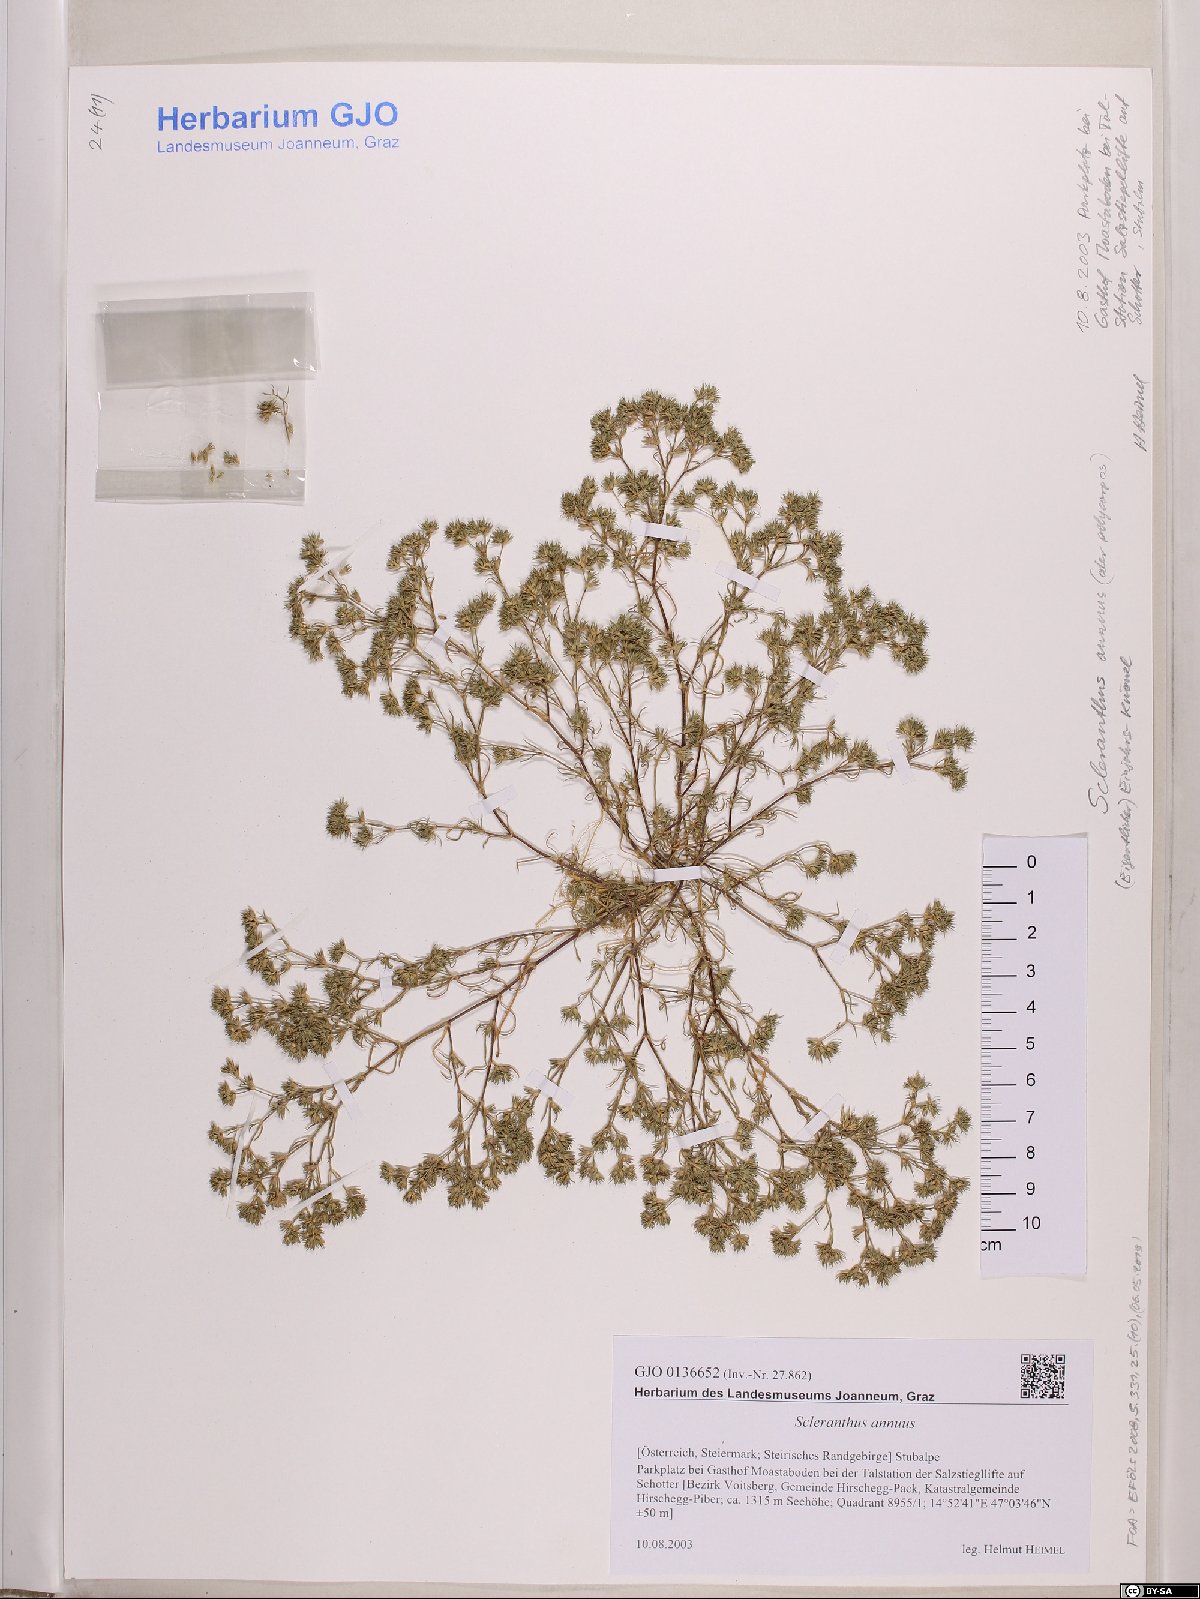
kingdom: Plantae
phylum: Tracheophyta
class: Magnoliopsida
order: Caryophyllales
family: Caryophyllaceae
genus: Scleranthus
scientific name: Scleranthus annuus
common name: Annual knawel
